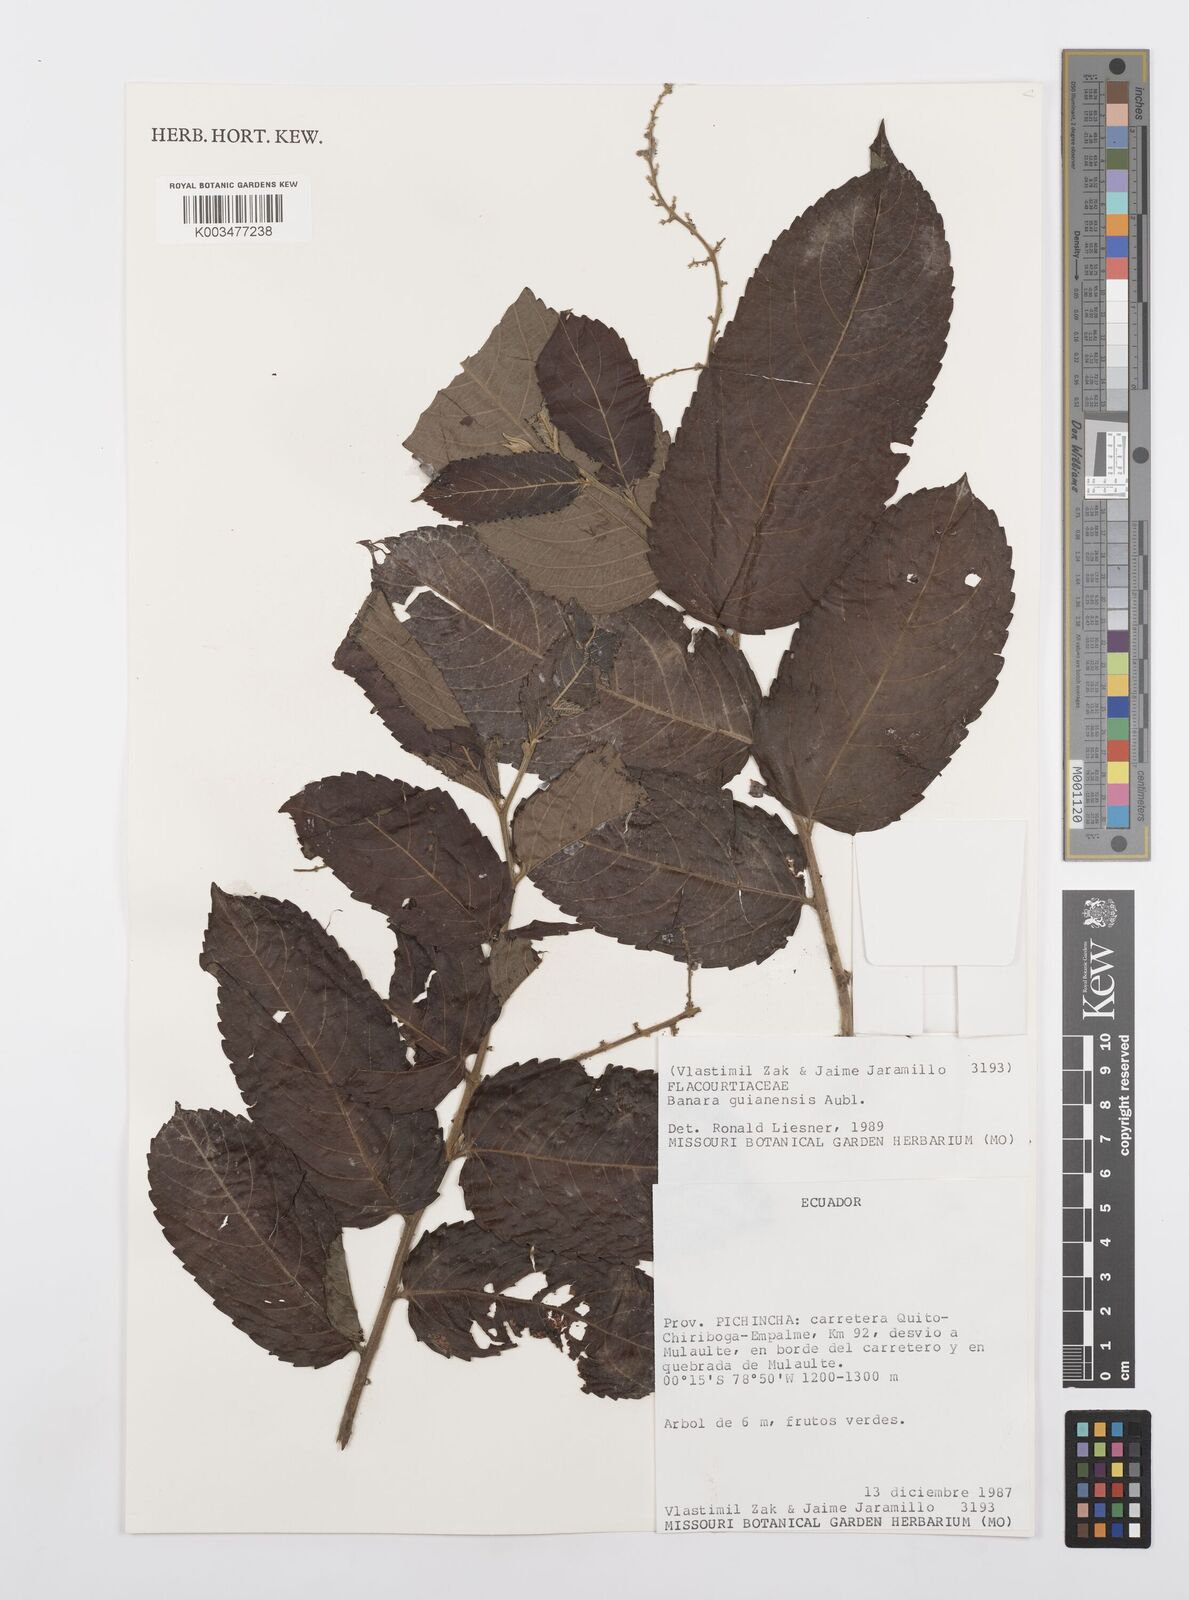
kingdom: Plantae
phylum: Tracheophyta
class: Magnoliopsida
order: Malpighiales
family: Salicaceae
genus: Banara
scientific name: Banara guianensis
